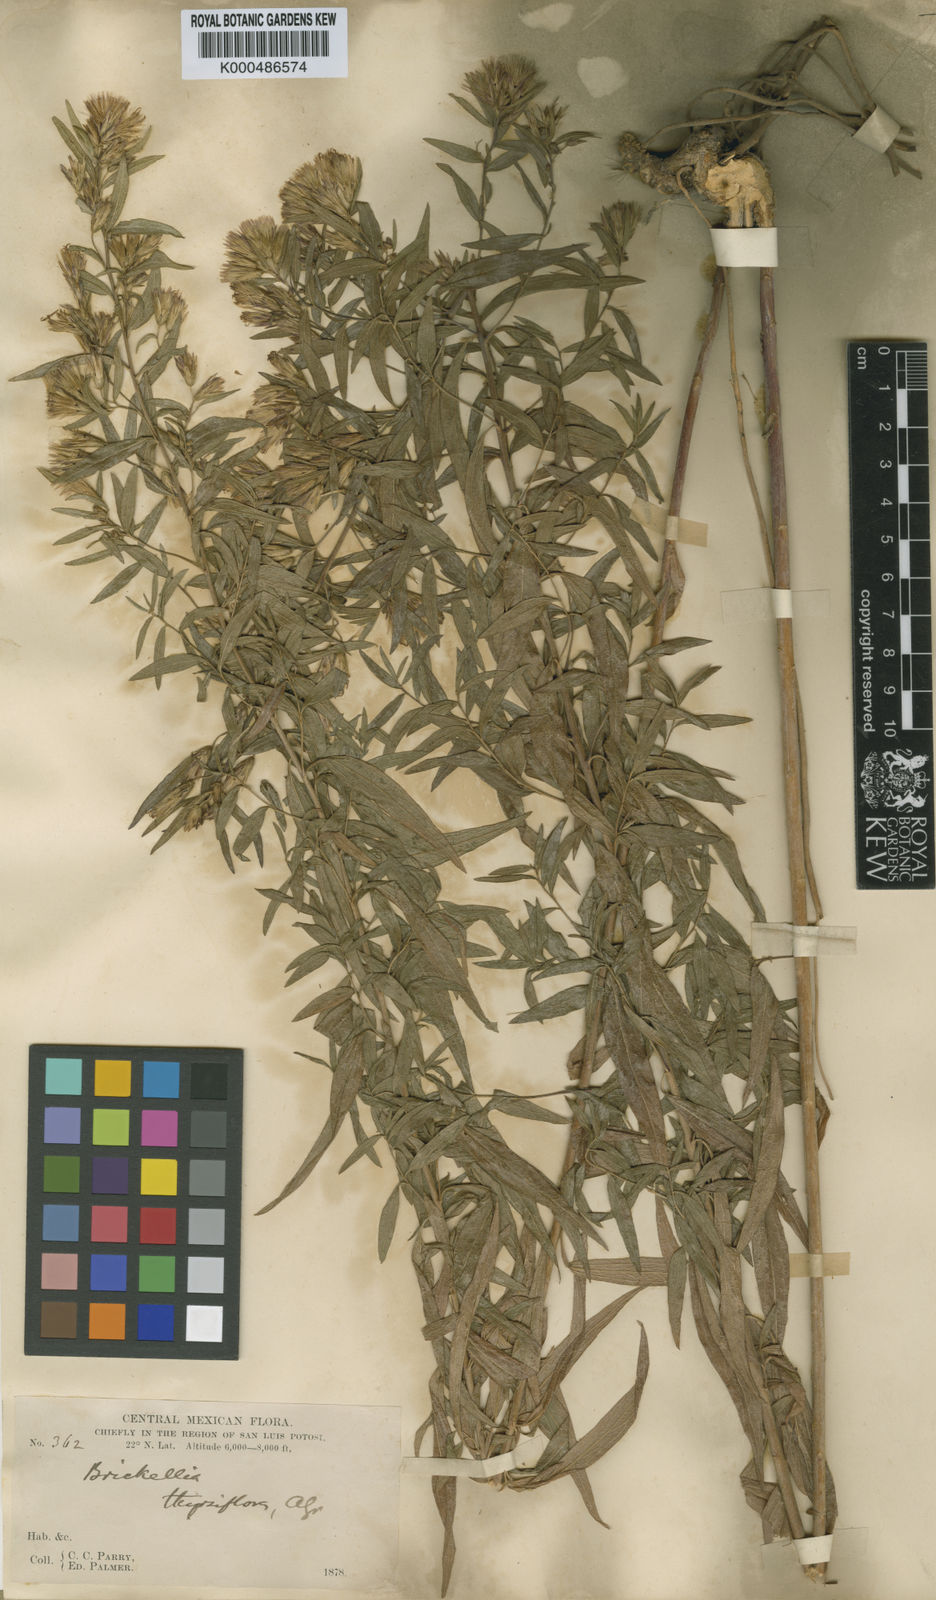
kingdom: Plantae
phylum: Tracheophyta
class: Magnoliopsida
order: Asterales
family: Asteraceae
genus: Asanthus
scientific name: Asanthus thyrsiflorus
